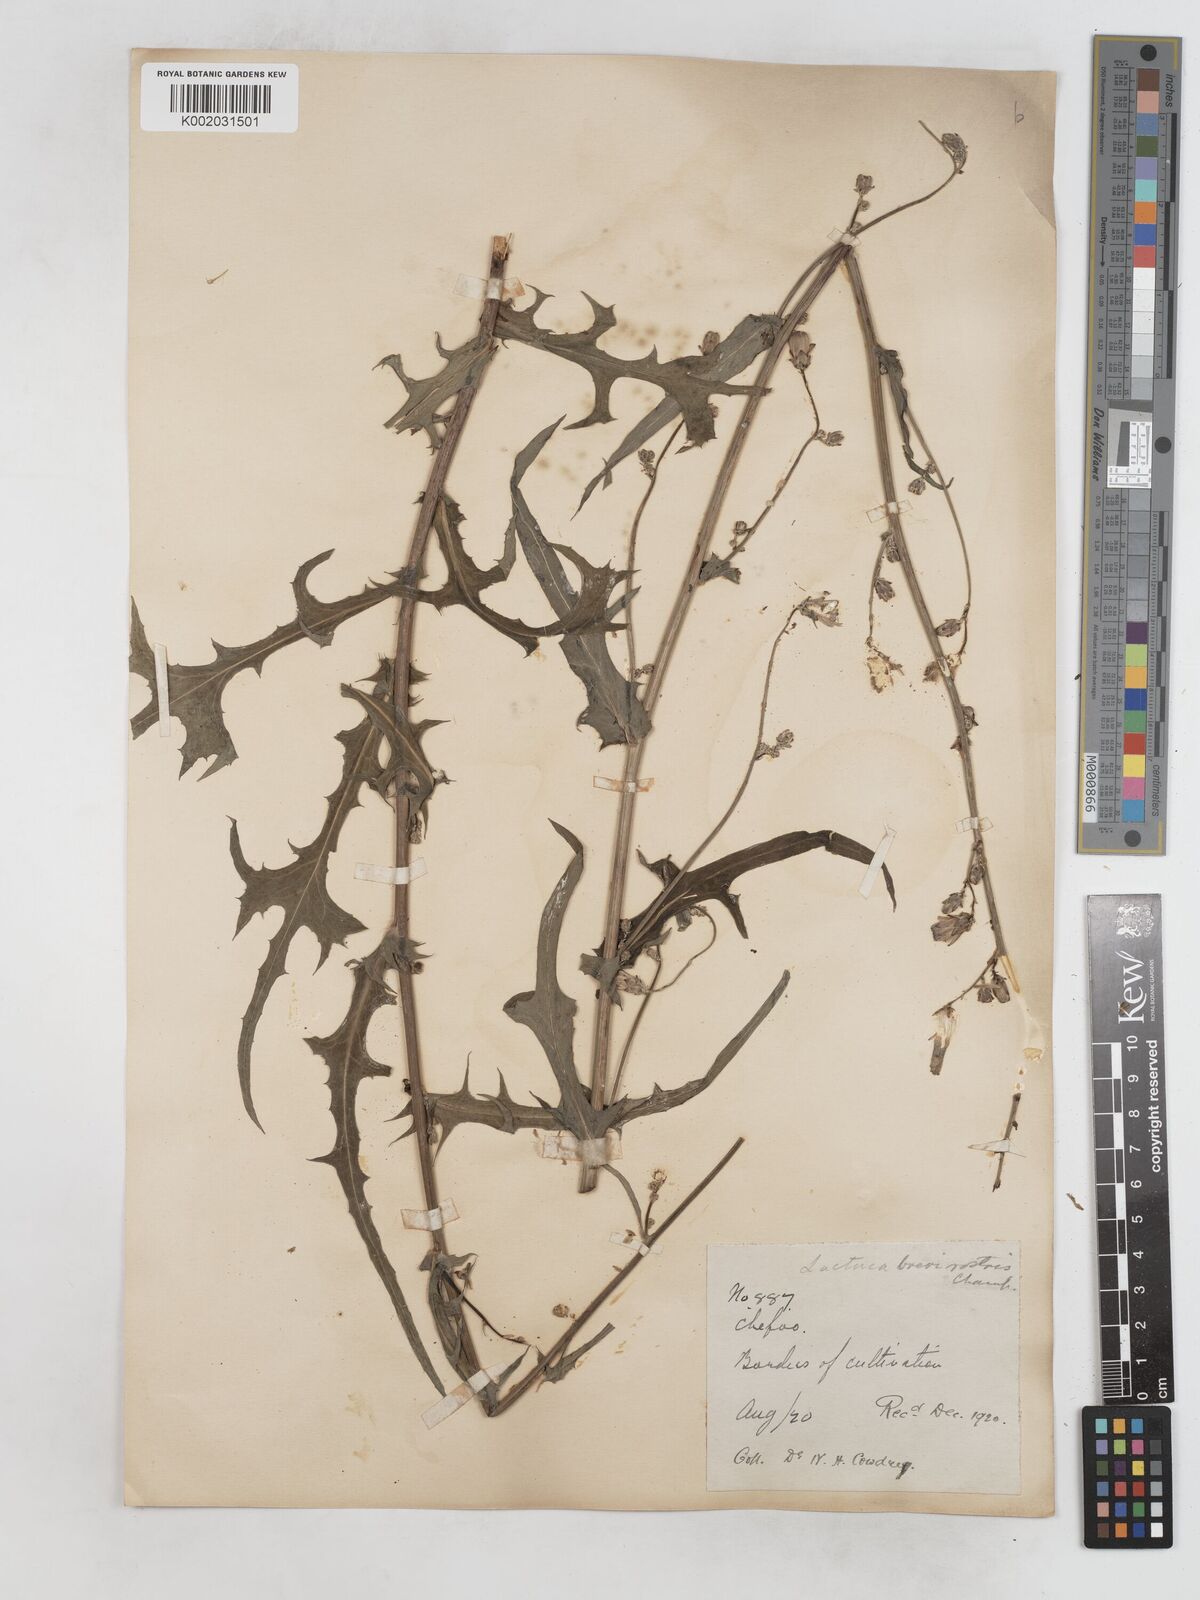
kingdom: Plantae
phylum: Tracheophyta
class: Magnoliopsida
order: Asterales
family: Asteraceae
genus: Lactuca
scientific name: Lactuca indica
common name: Wild lettuce
